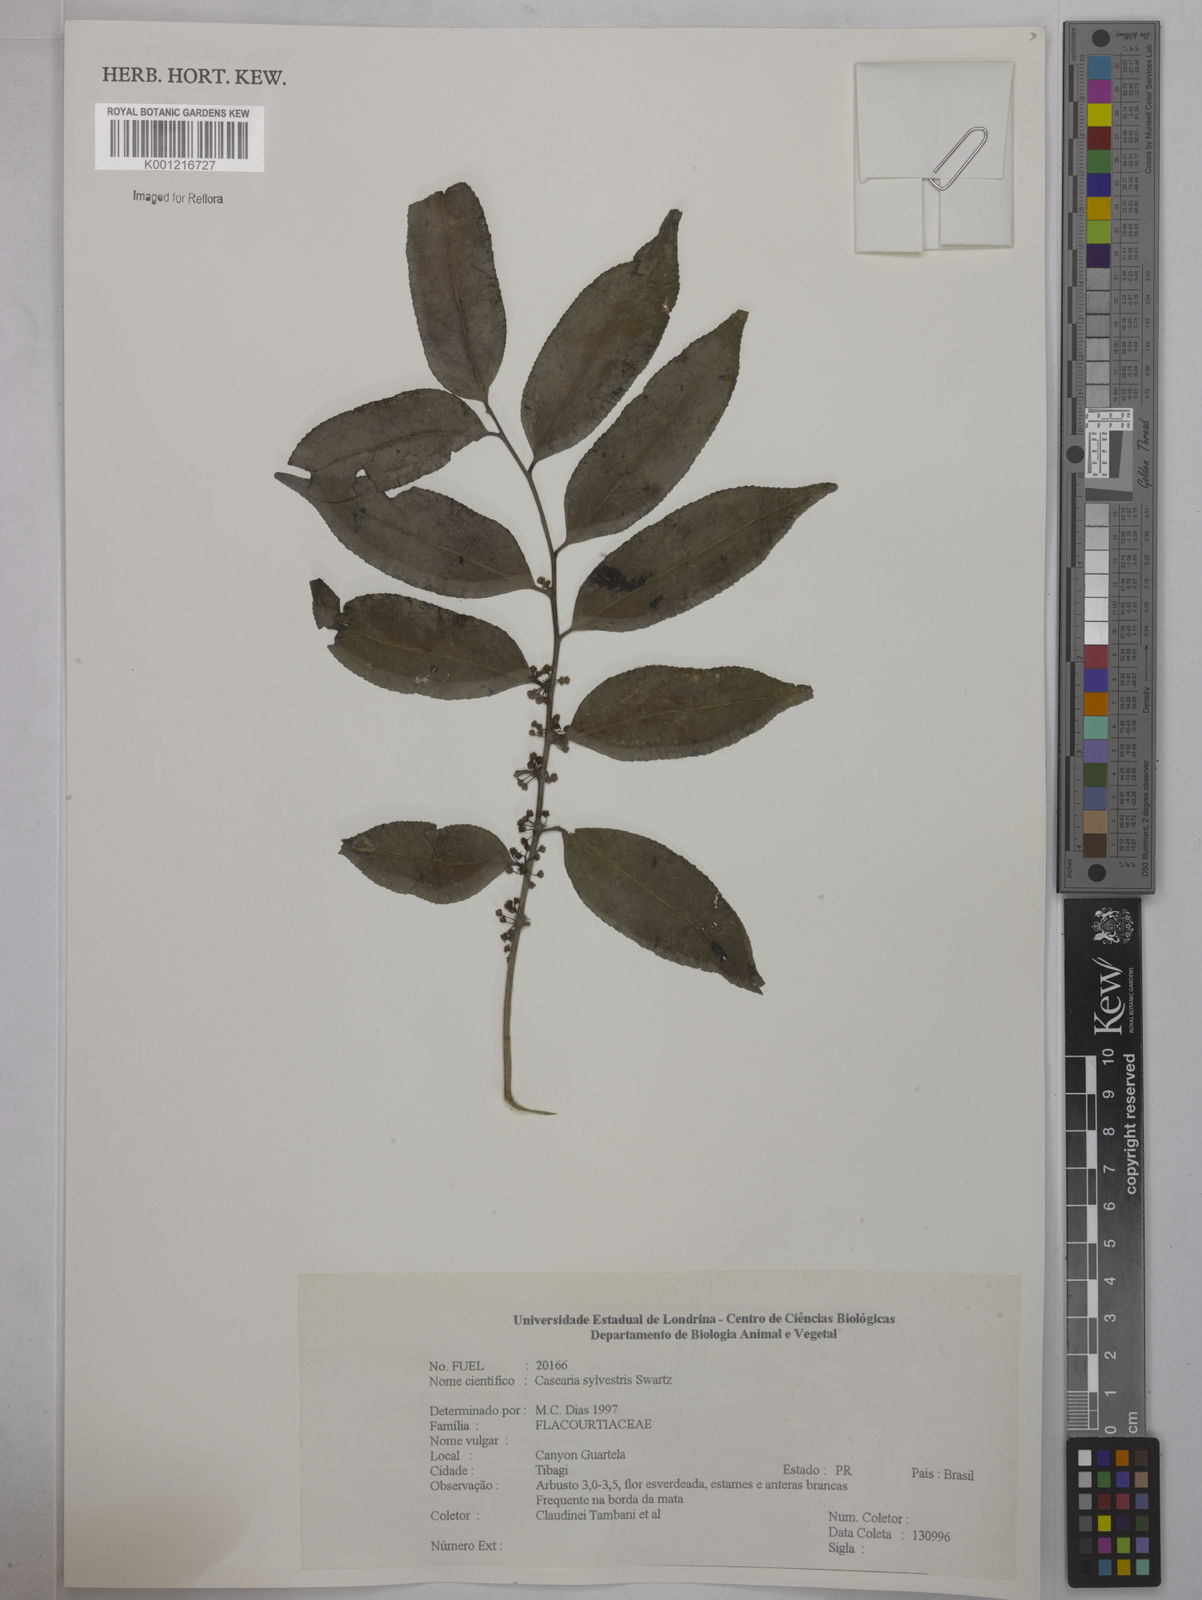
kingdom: Plantae
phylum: Tracheophyta
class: Magnoliopsida
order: Malpighiales
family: Salicaceae
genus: Casearia
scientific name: Casearia sylvestris
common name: Wild sage
